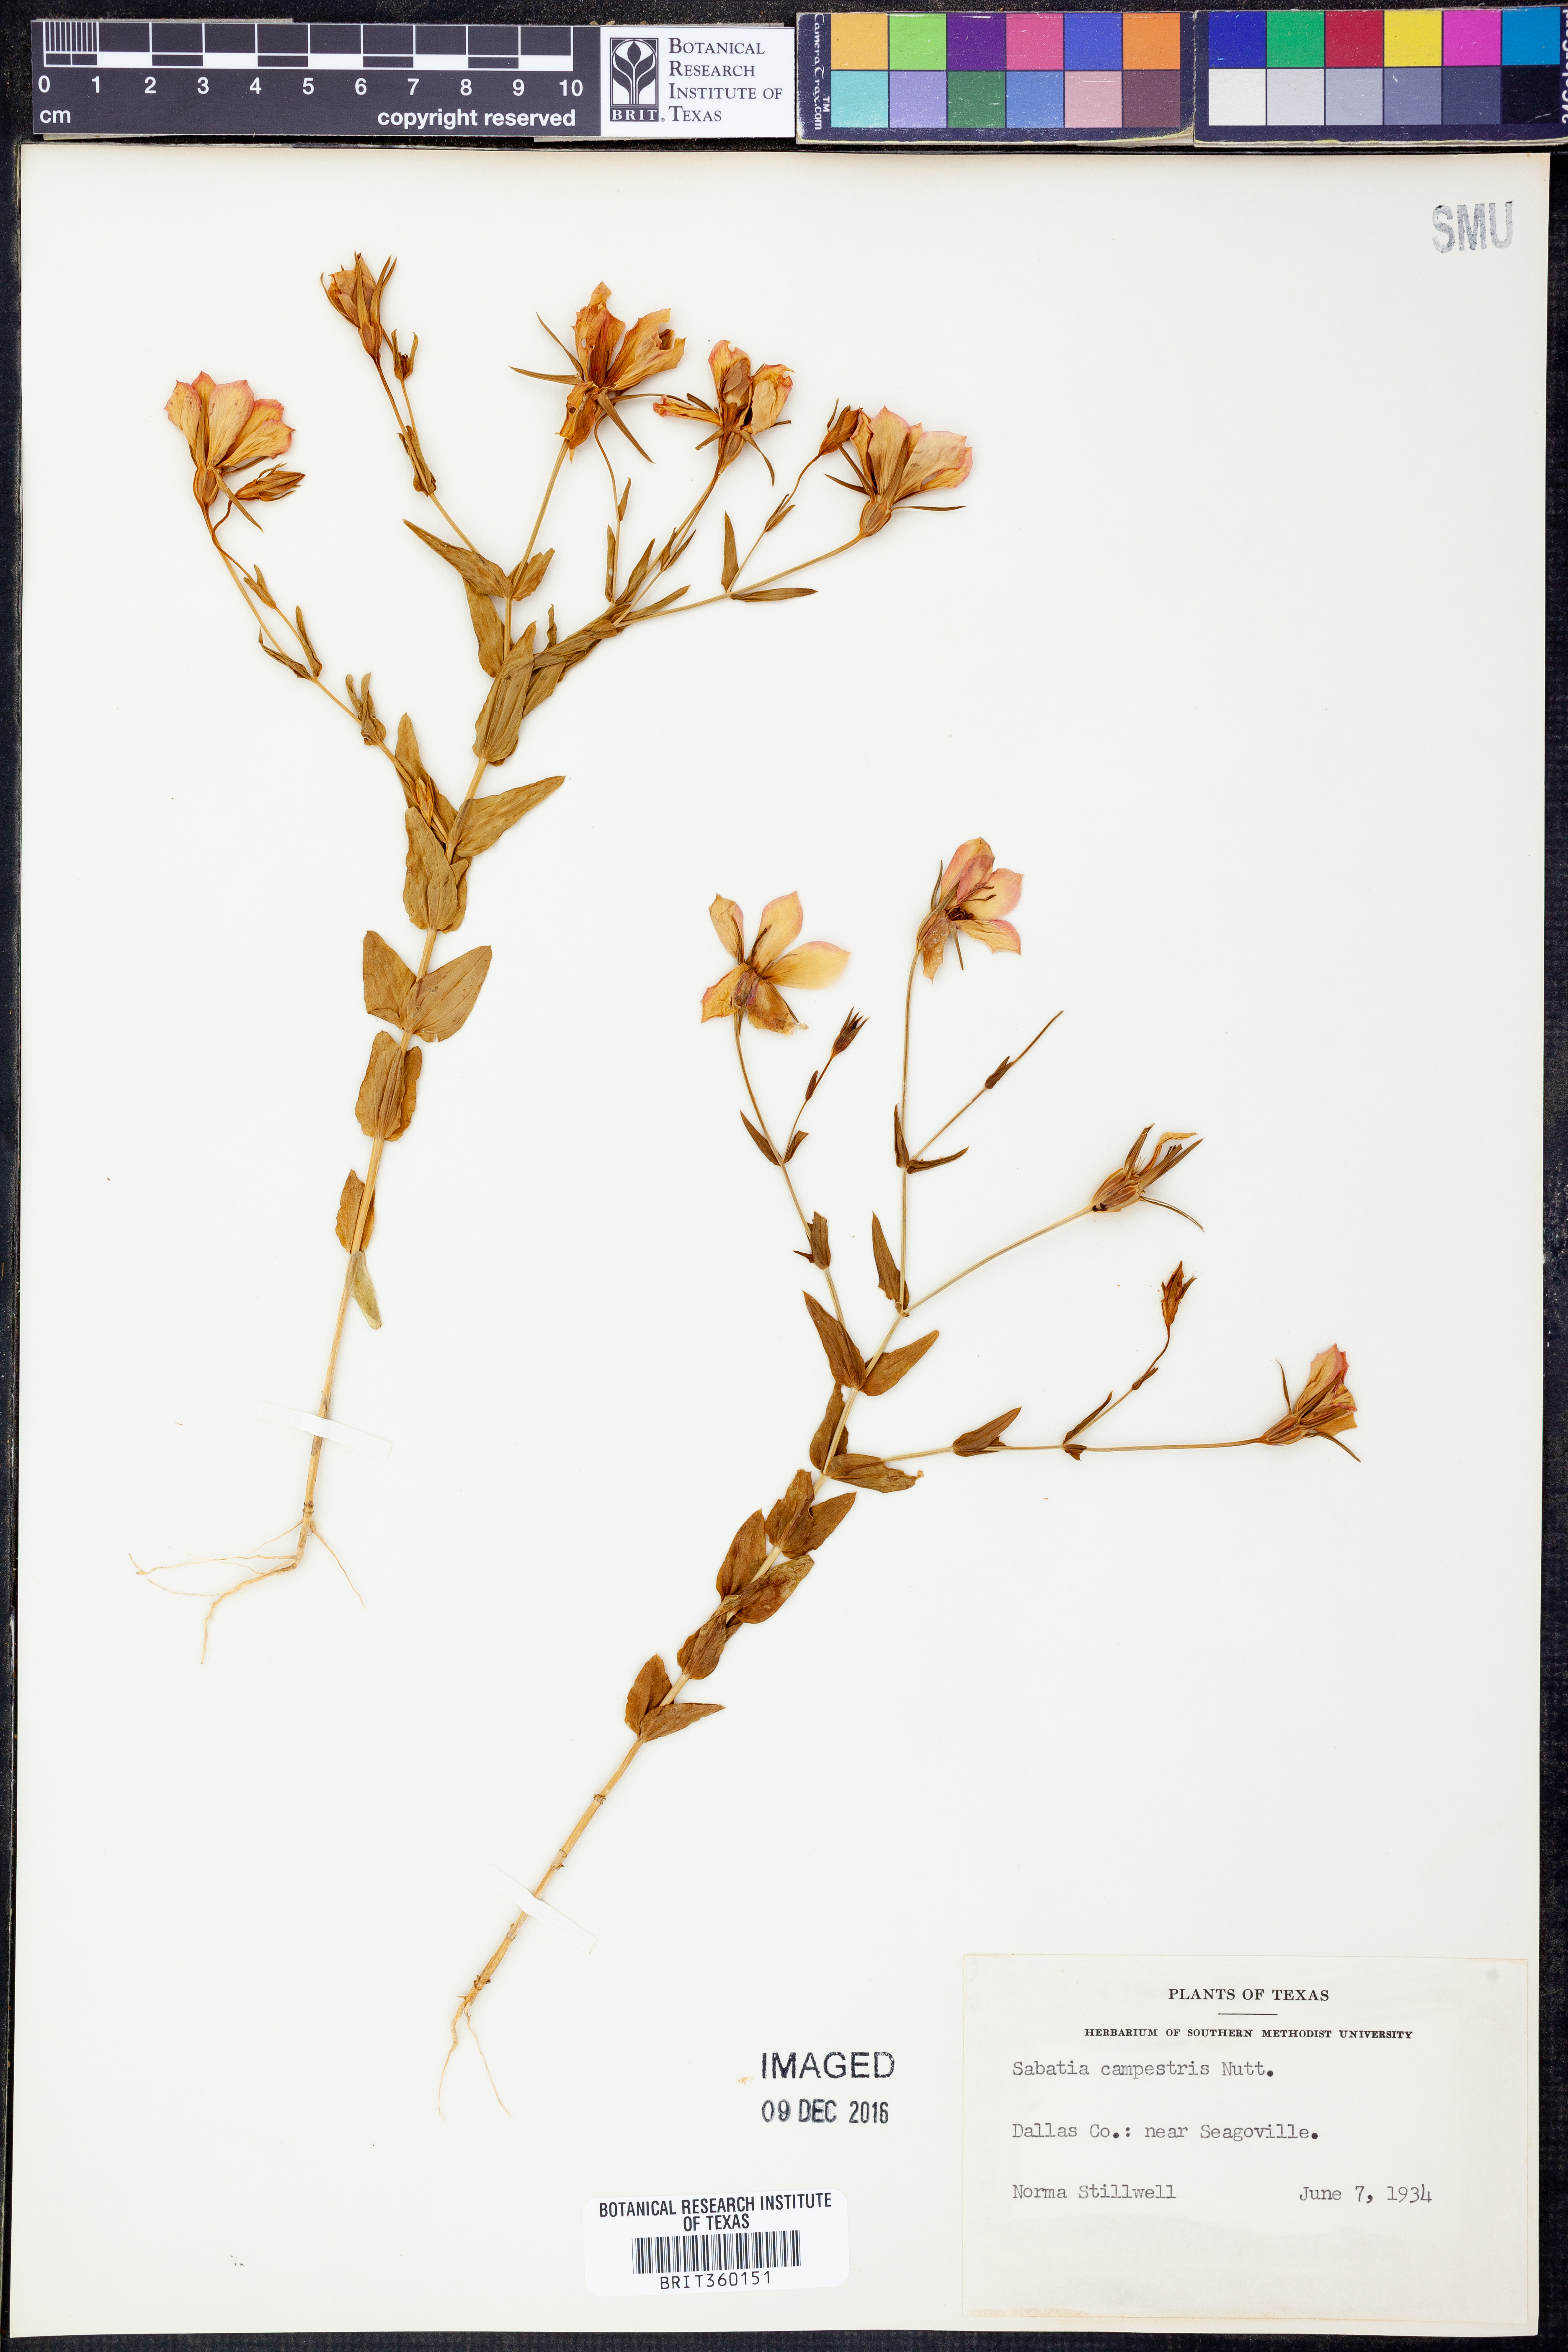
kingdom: Plantae
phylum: Tracheophyta
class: Magnoliopsida
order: Gentianales
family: Gentianaceae
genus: Sabatia
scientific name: Sabatia campestris
